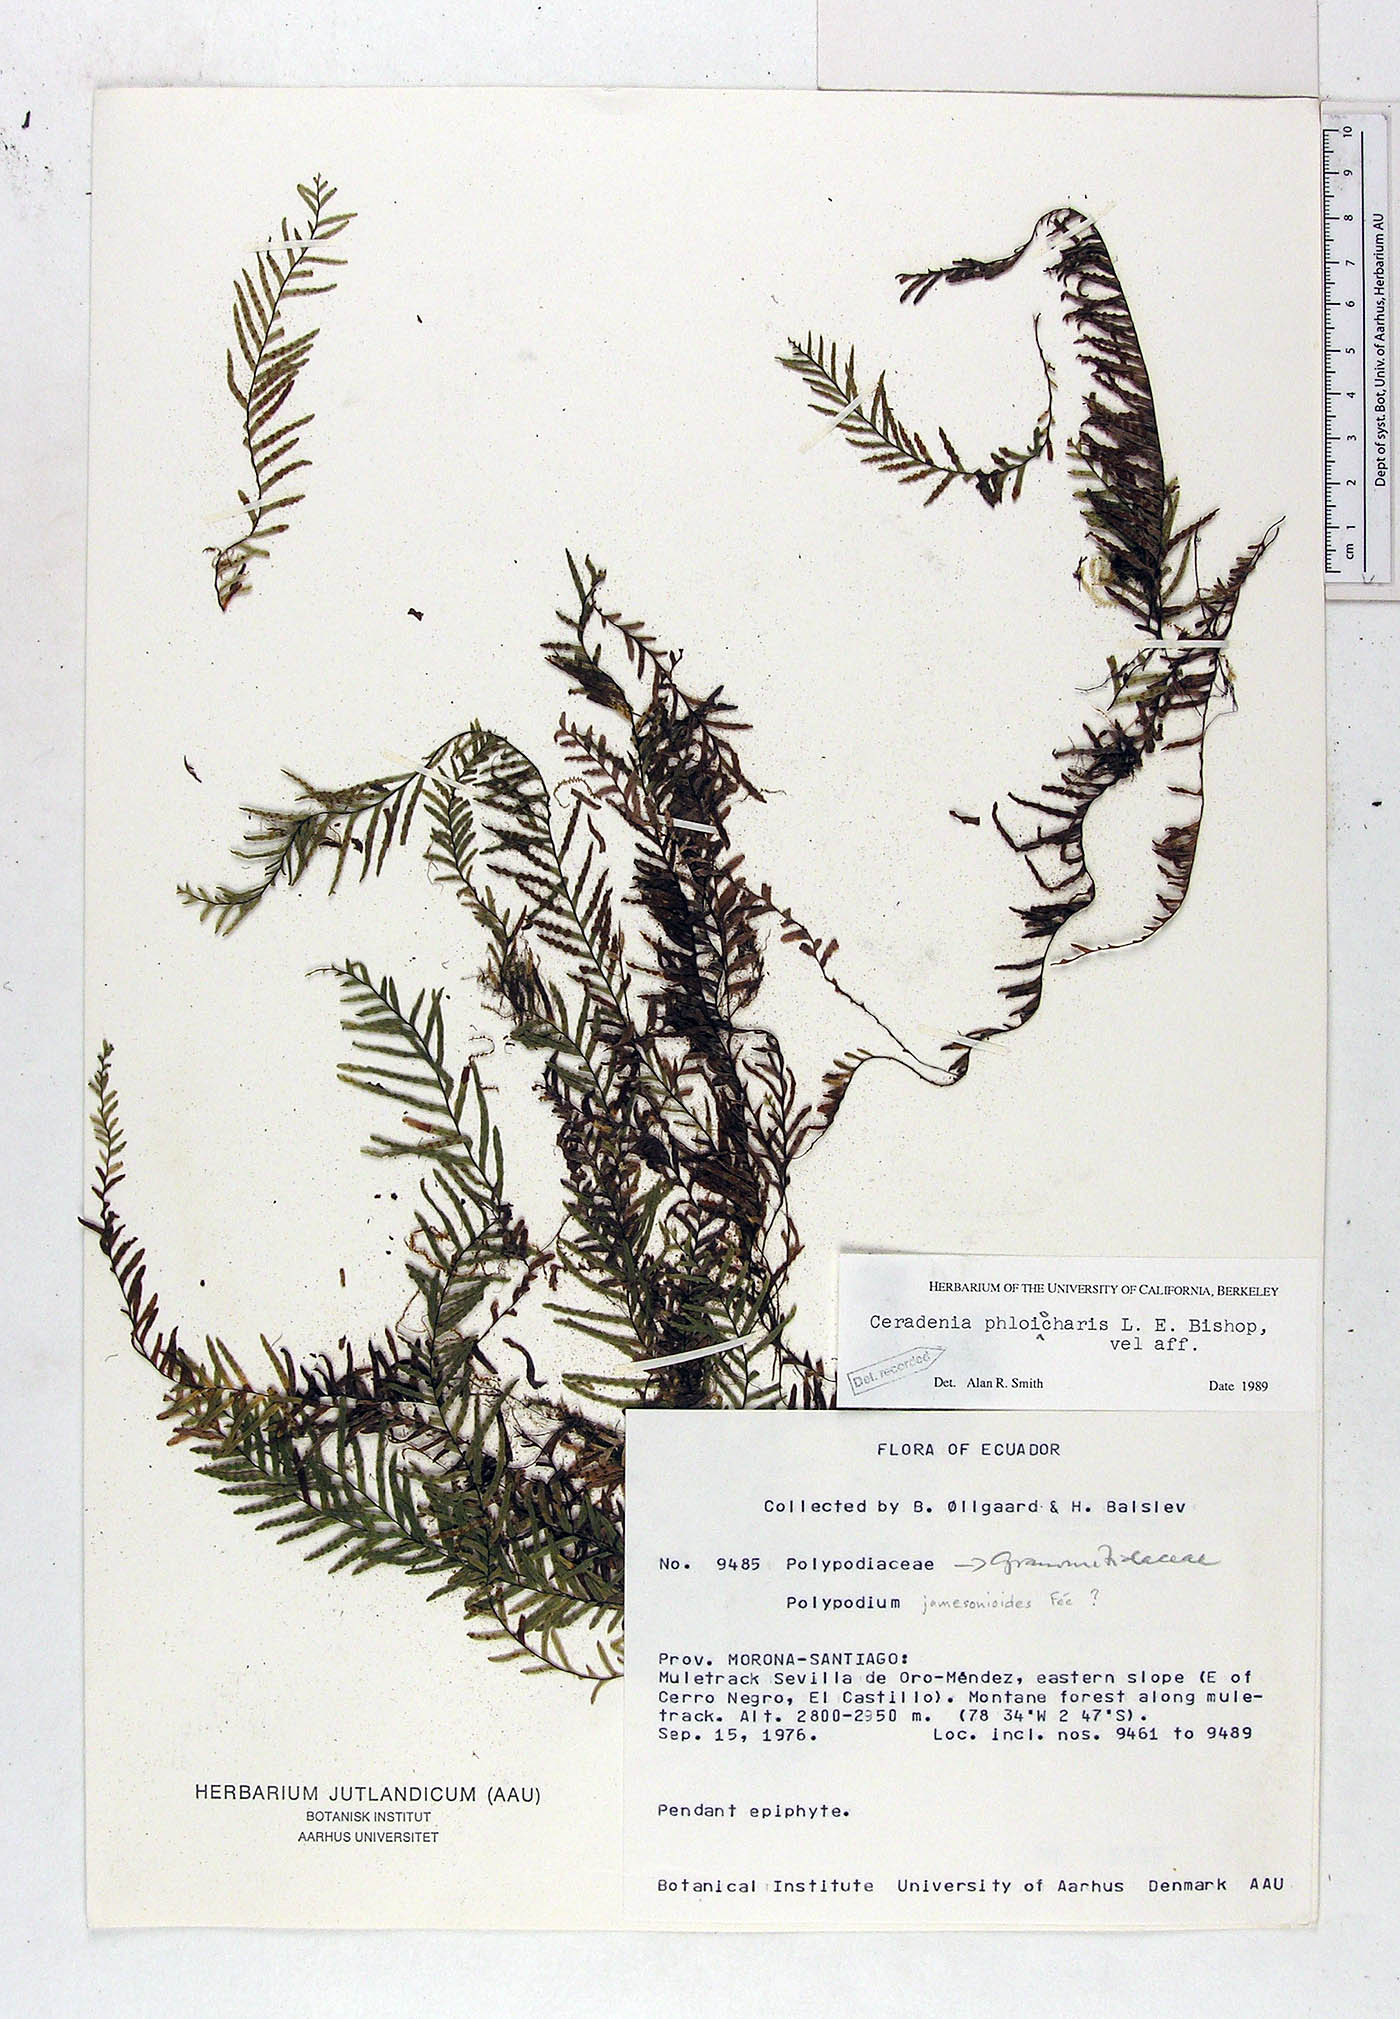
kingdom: Plantae
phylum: Tracheophyta
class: Polypodiopsida
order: Polypodiales
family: Polypodiaceae
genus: Ceradenia
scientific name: Ceradenia phloiocharis
